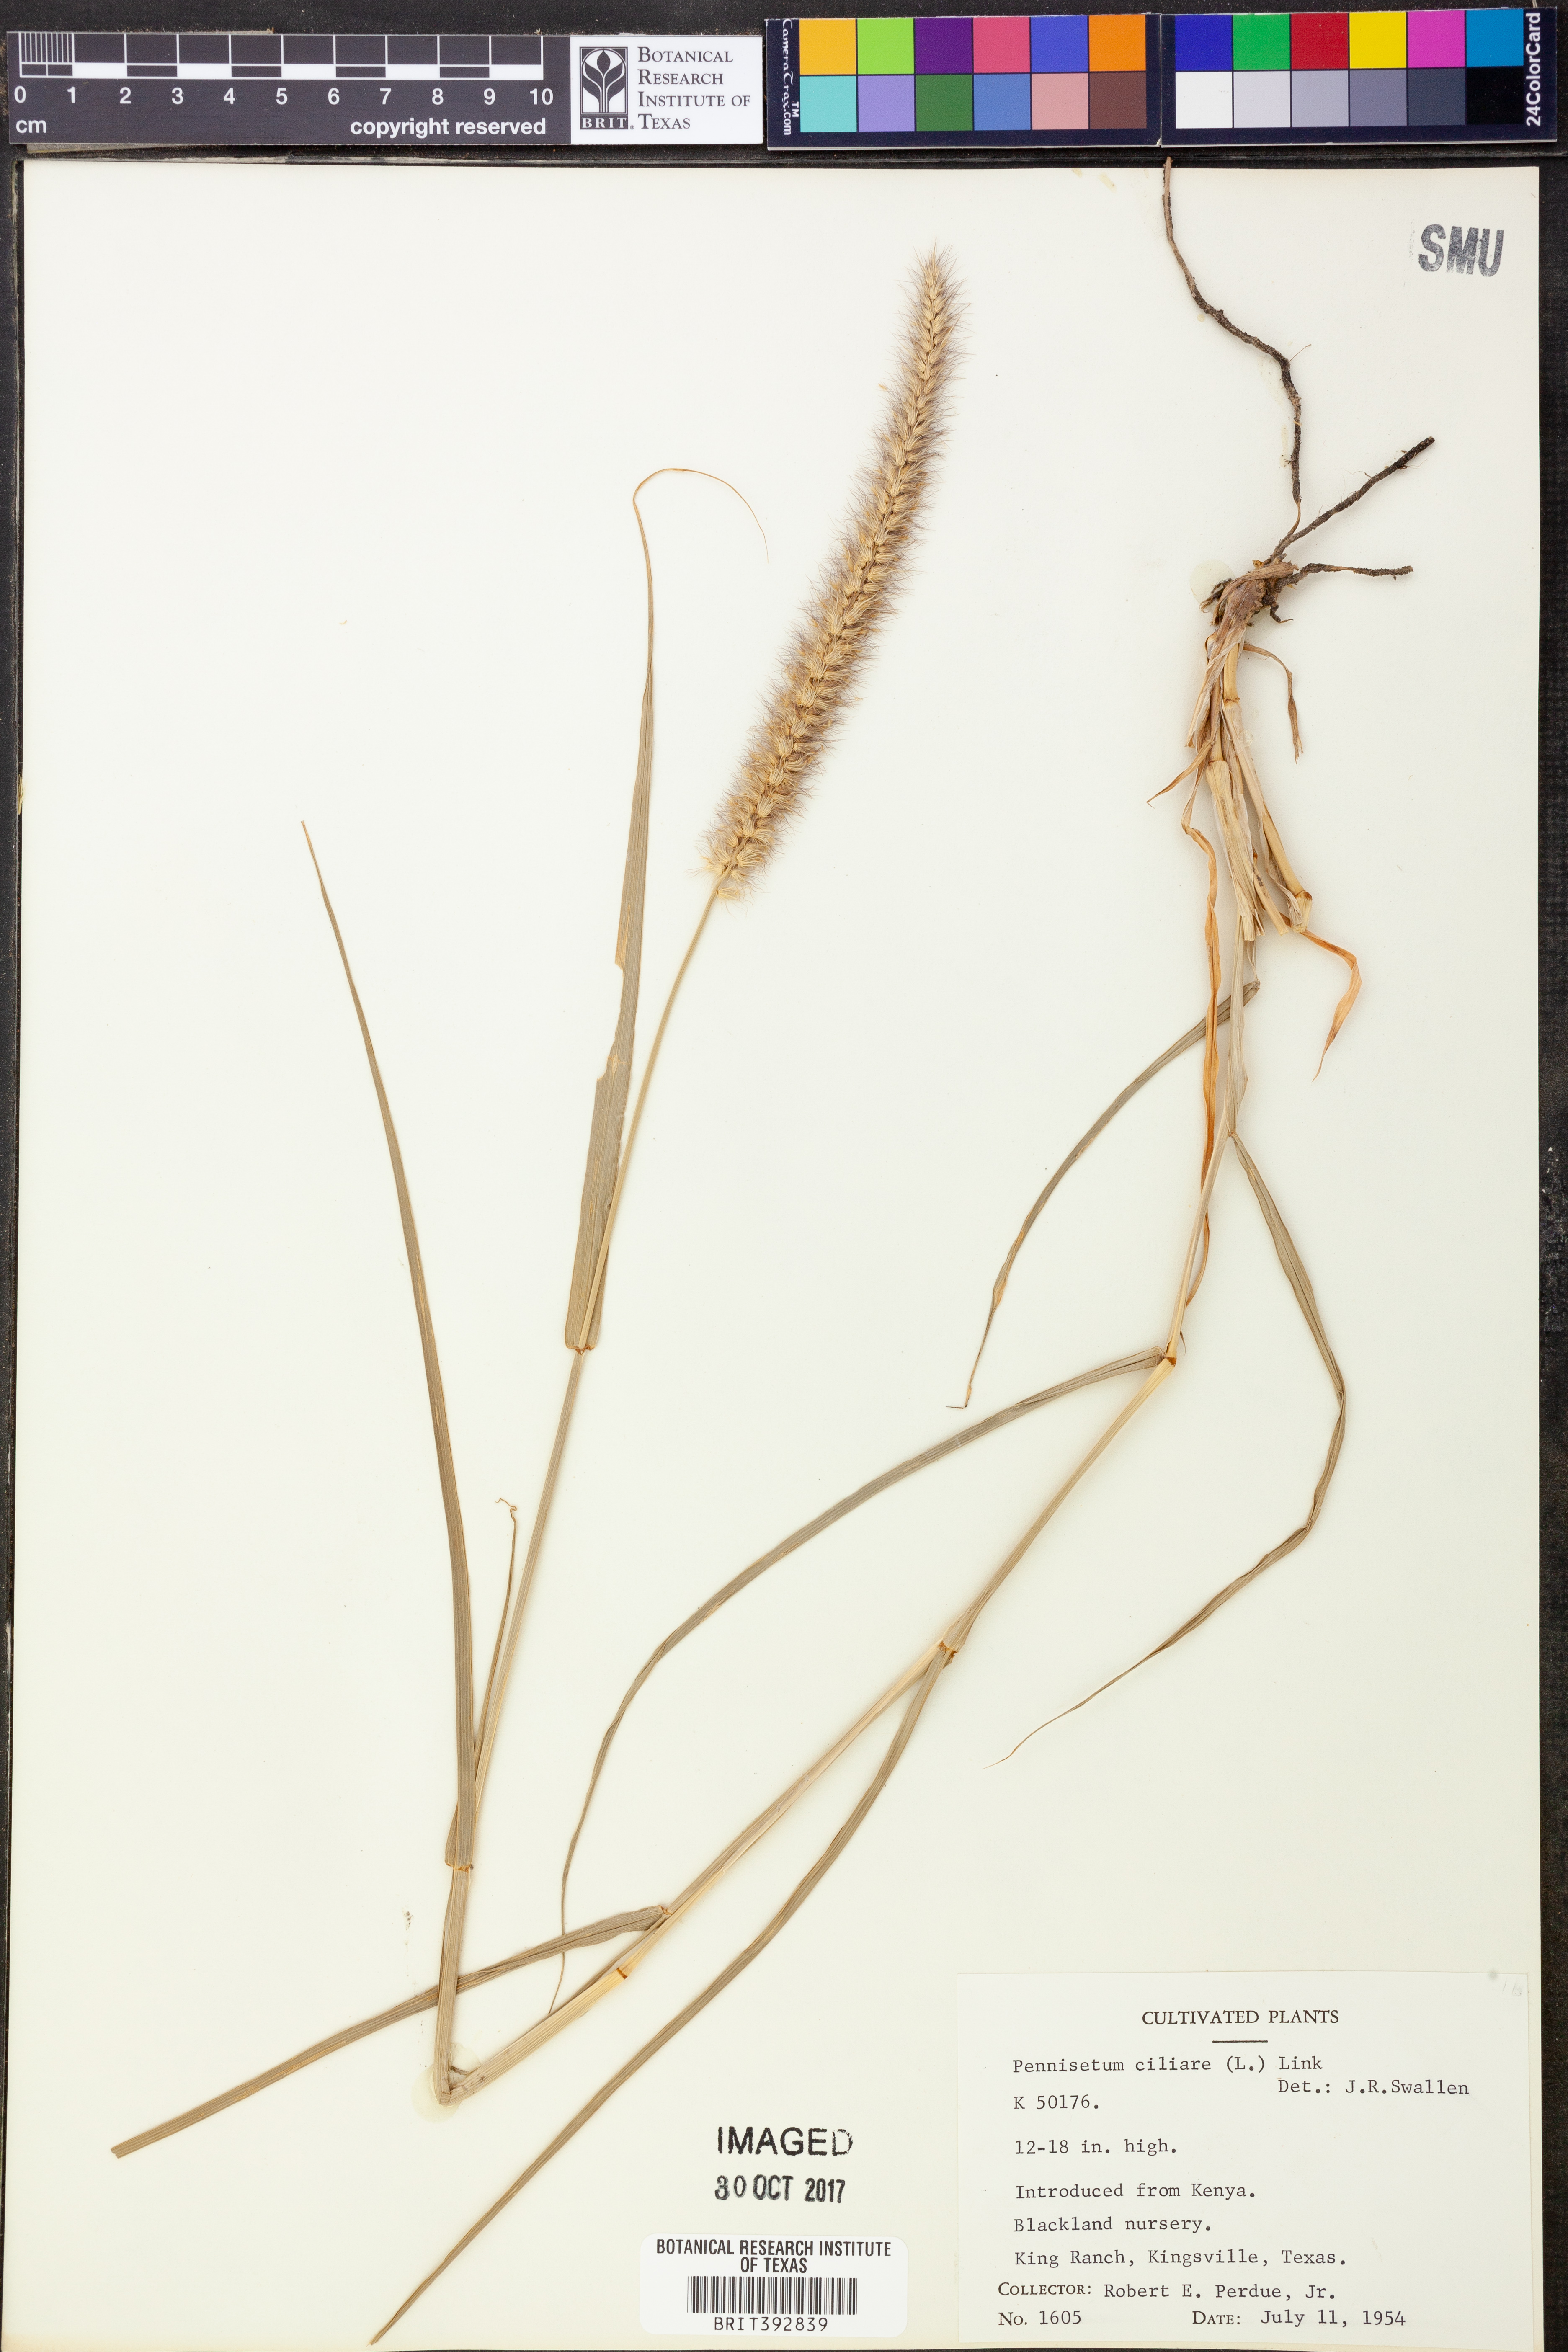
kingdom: Plantae
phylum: Tracheophyta
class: Liliopsida
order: Poales
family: Poaceae
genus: Cenchrus
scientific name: Cenchrus ciliaris
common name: Buffelgrass
